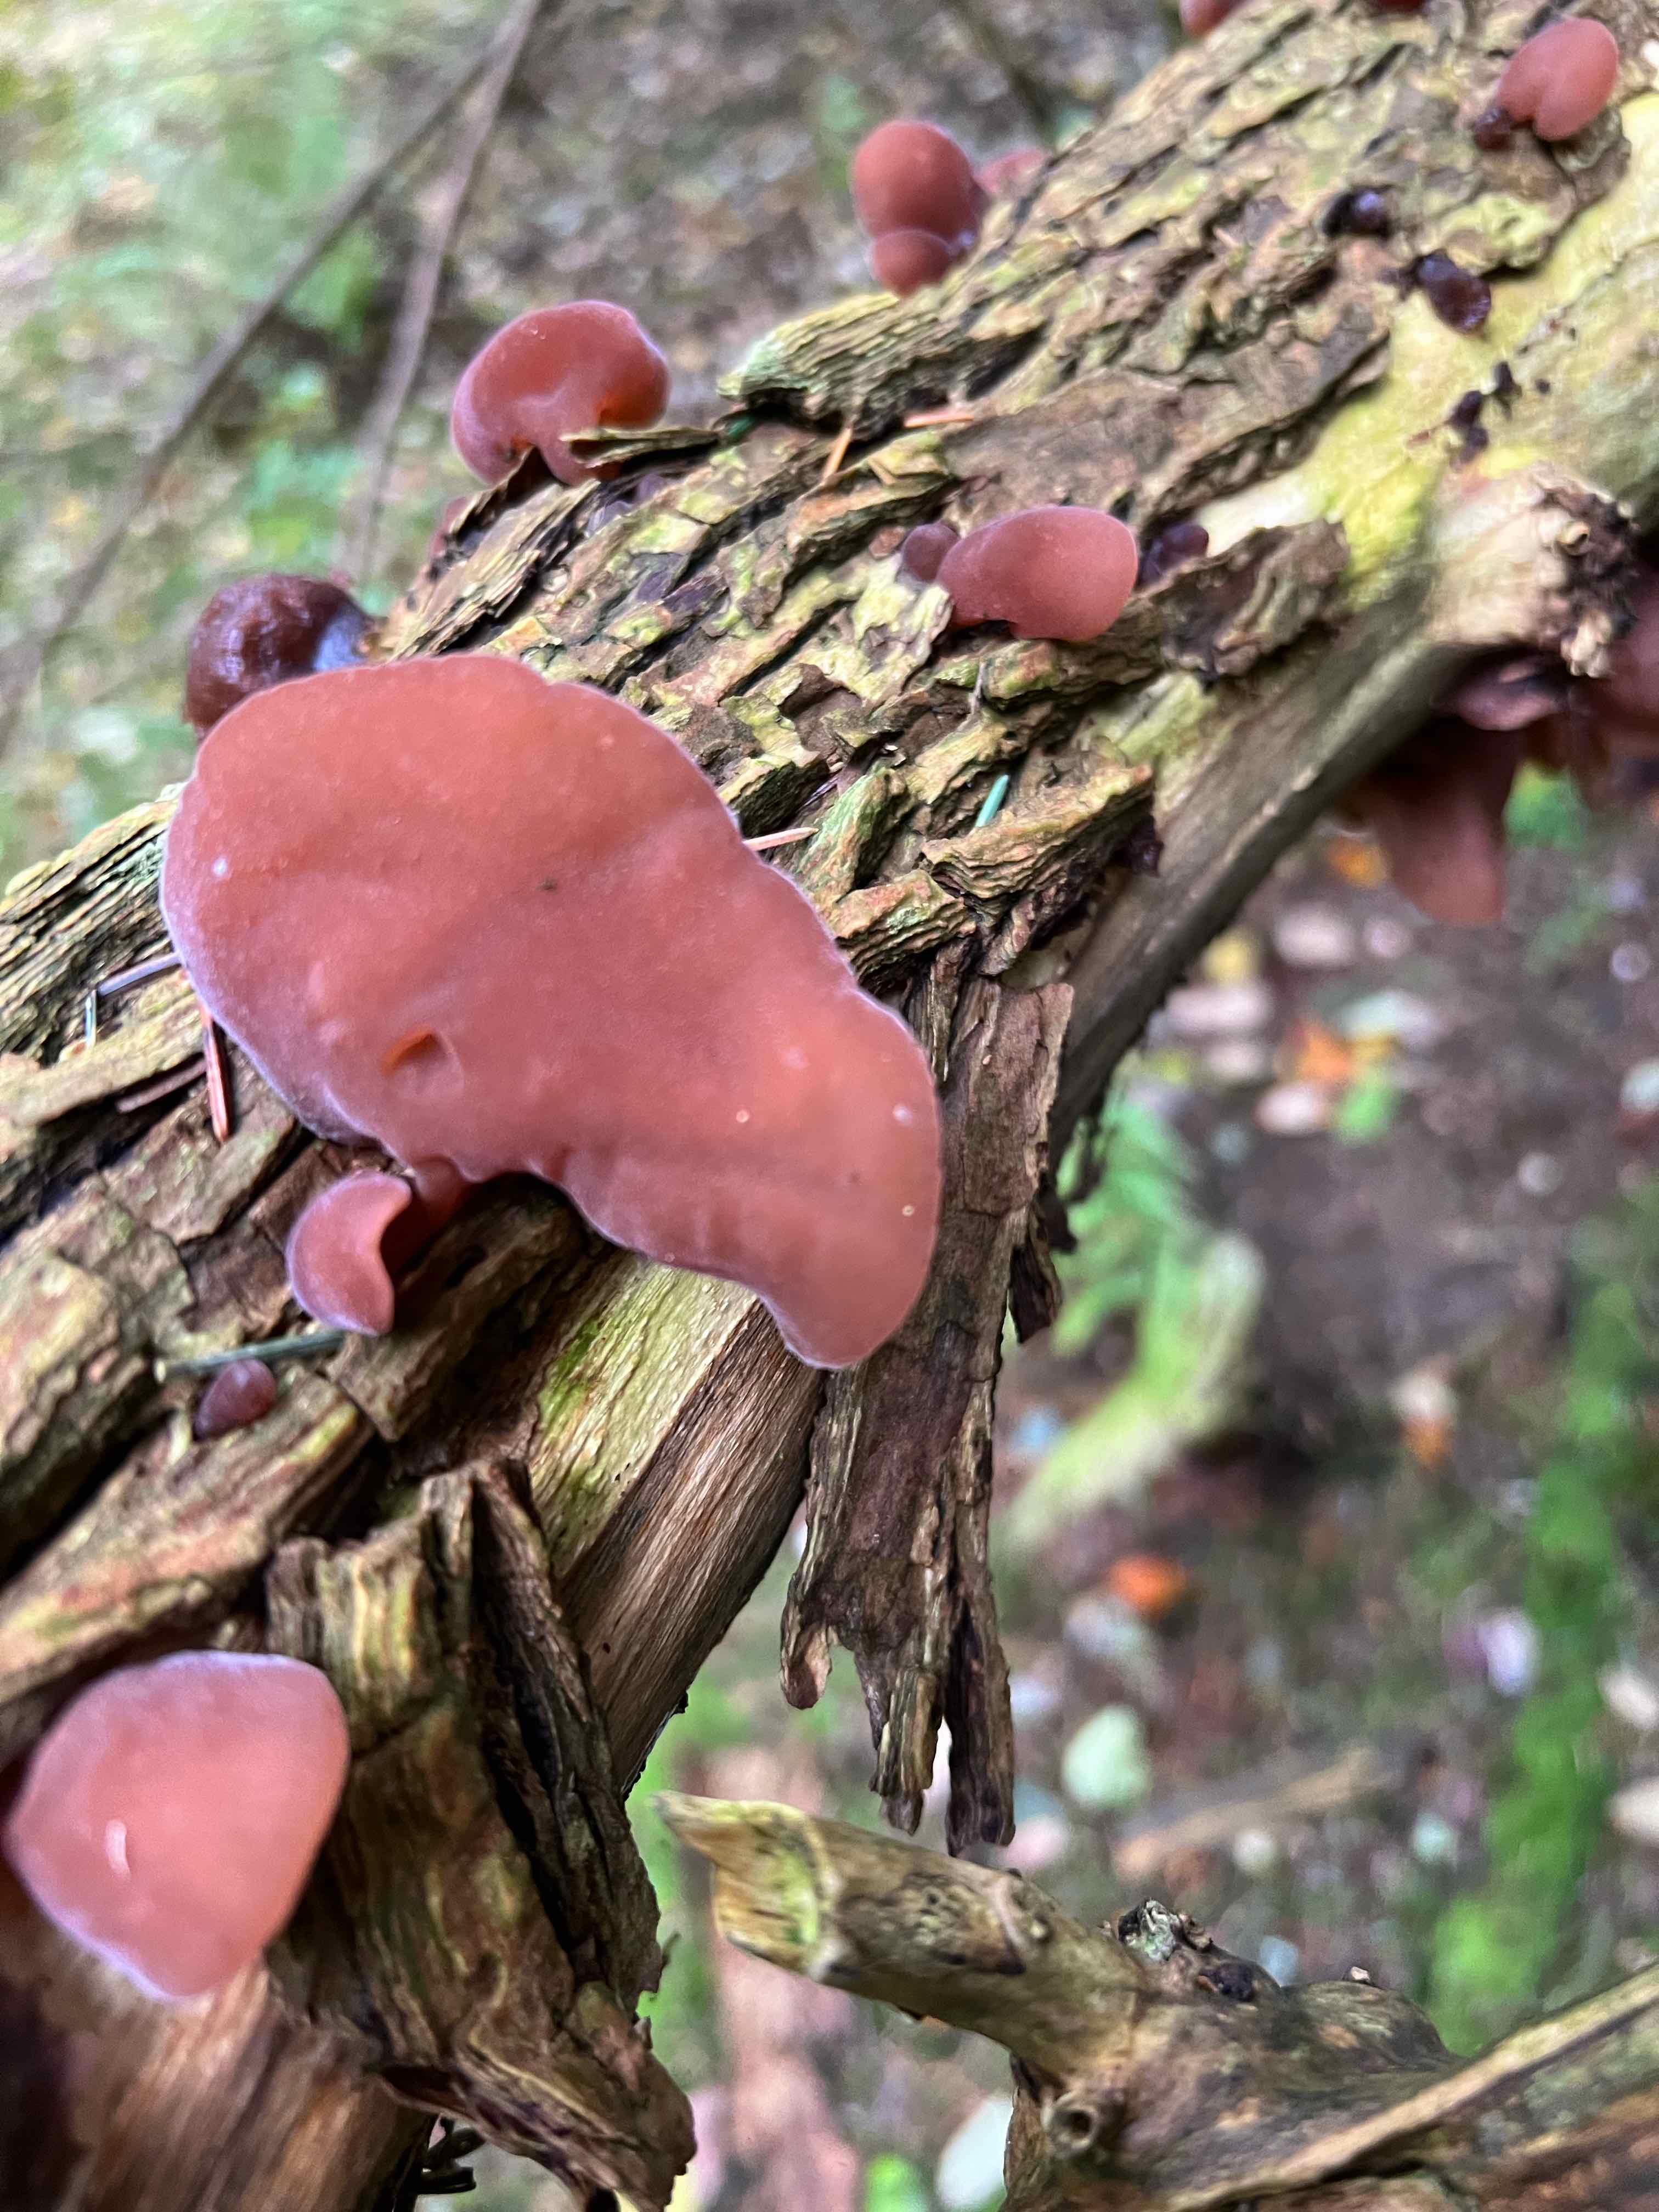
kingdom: Fungi
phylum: Basidiomycota
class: Agaricomycetes
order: Auriculariales
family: Auriculariaceae
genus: Auricularia
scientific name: Auricularia auricula-judae
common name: almindelig judasøre
